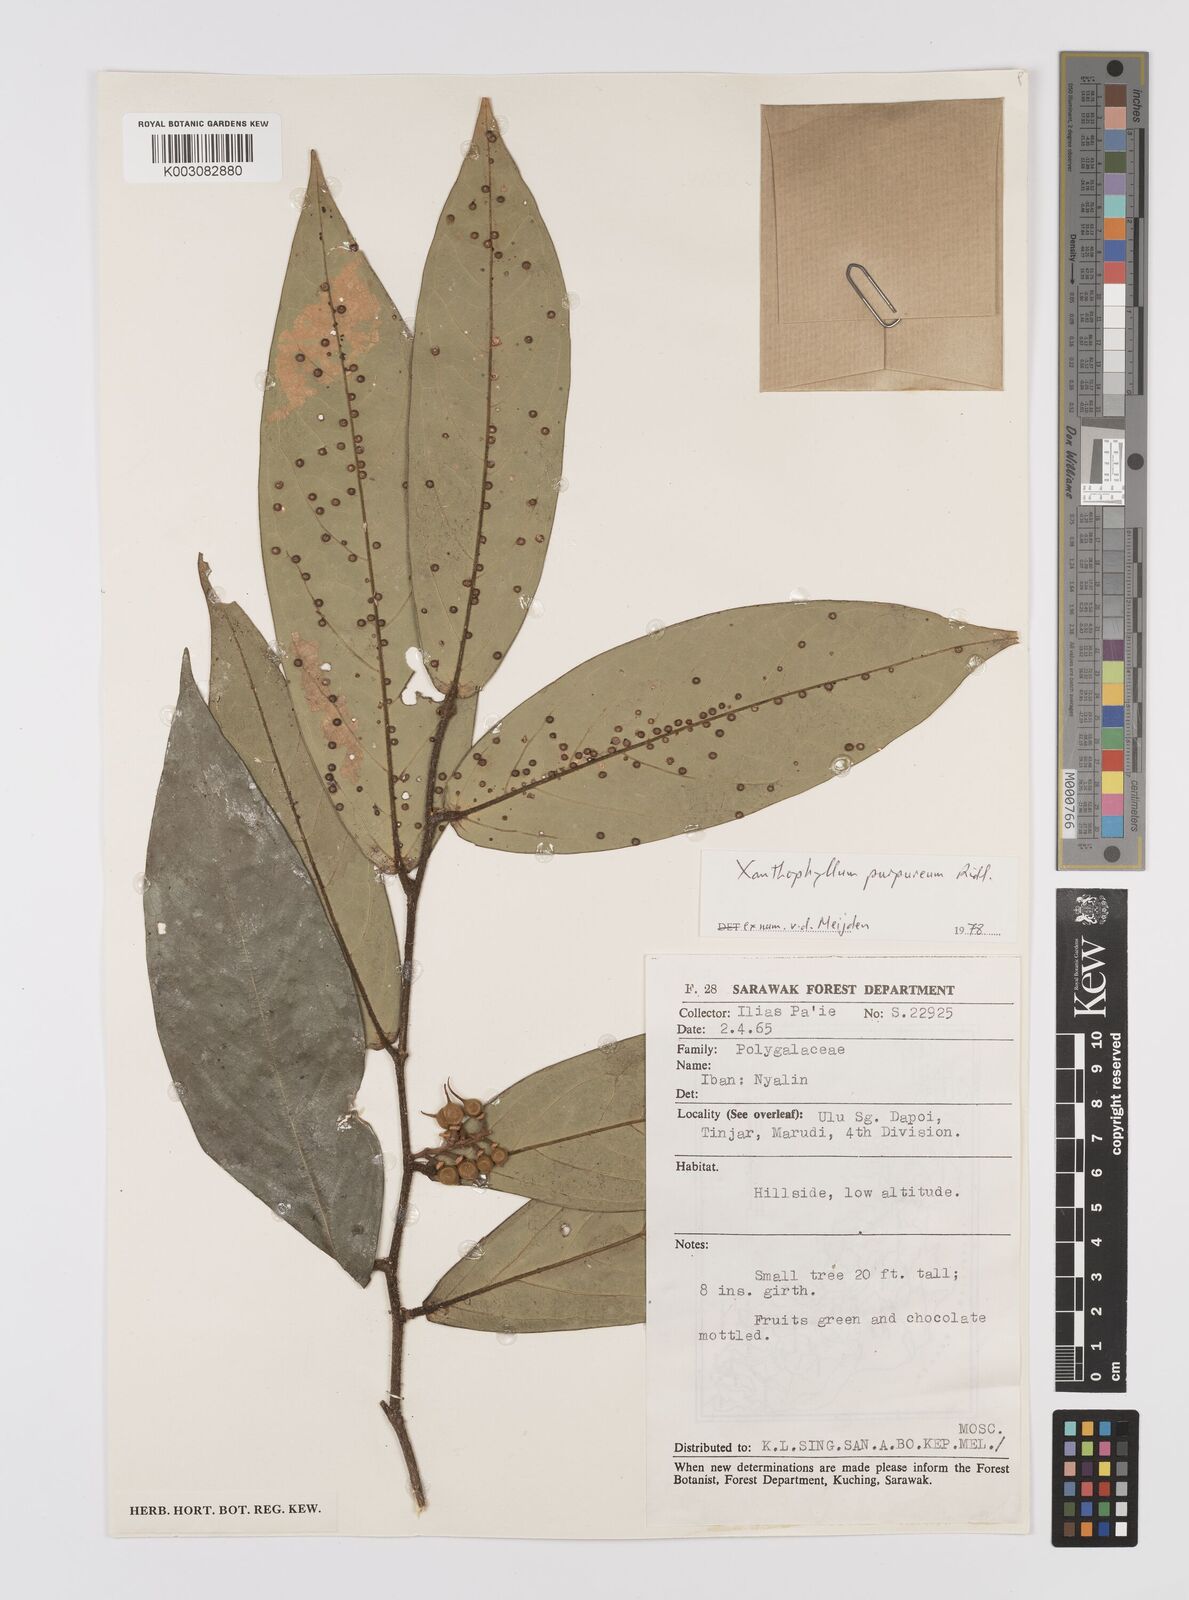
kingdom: Plantae
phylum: Tracheophyta
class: Magnoliopsida
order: Fabales
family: Polygalaceae
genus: Xanthophyllum
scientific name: Xanthophyllum purpureum
